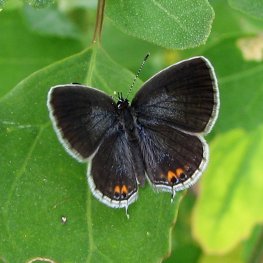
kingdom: Animalia
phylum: Arthropoda
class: Insecta
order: Lepidoptera
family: Lycaenidae
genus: Elkalyce
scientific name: Elkalyce comyntas
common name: Eastern Tailed-Blue
